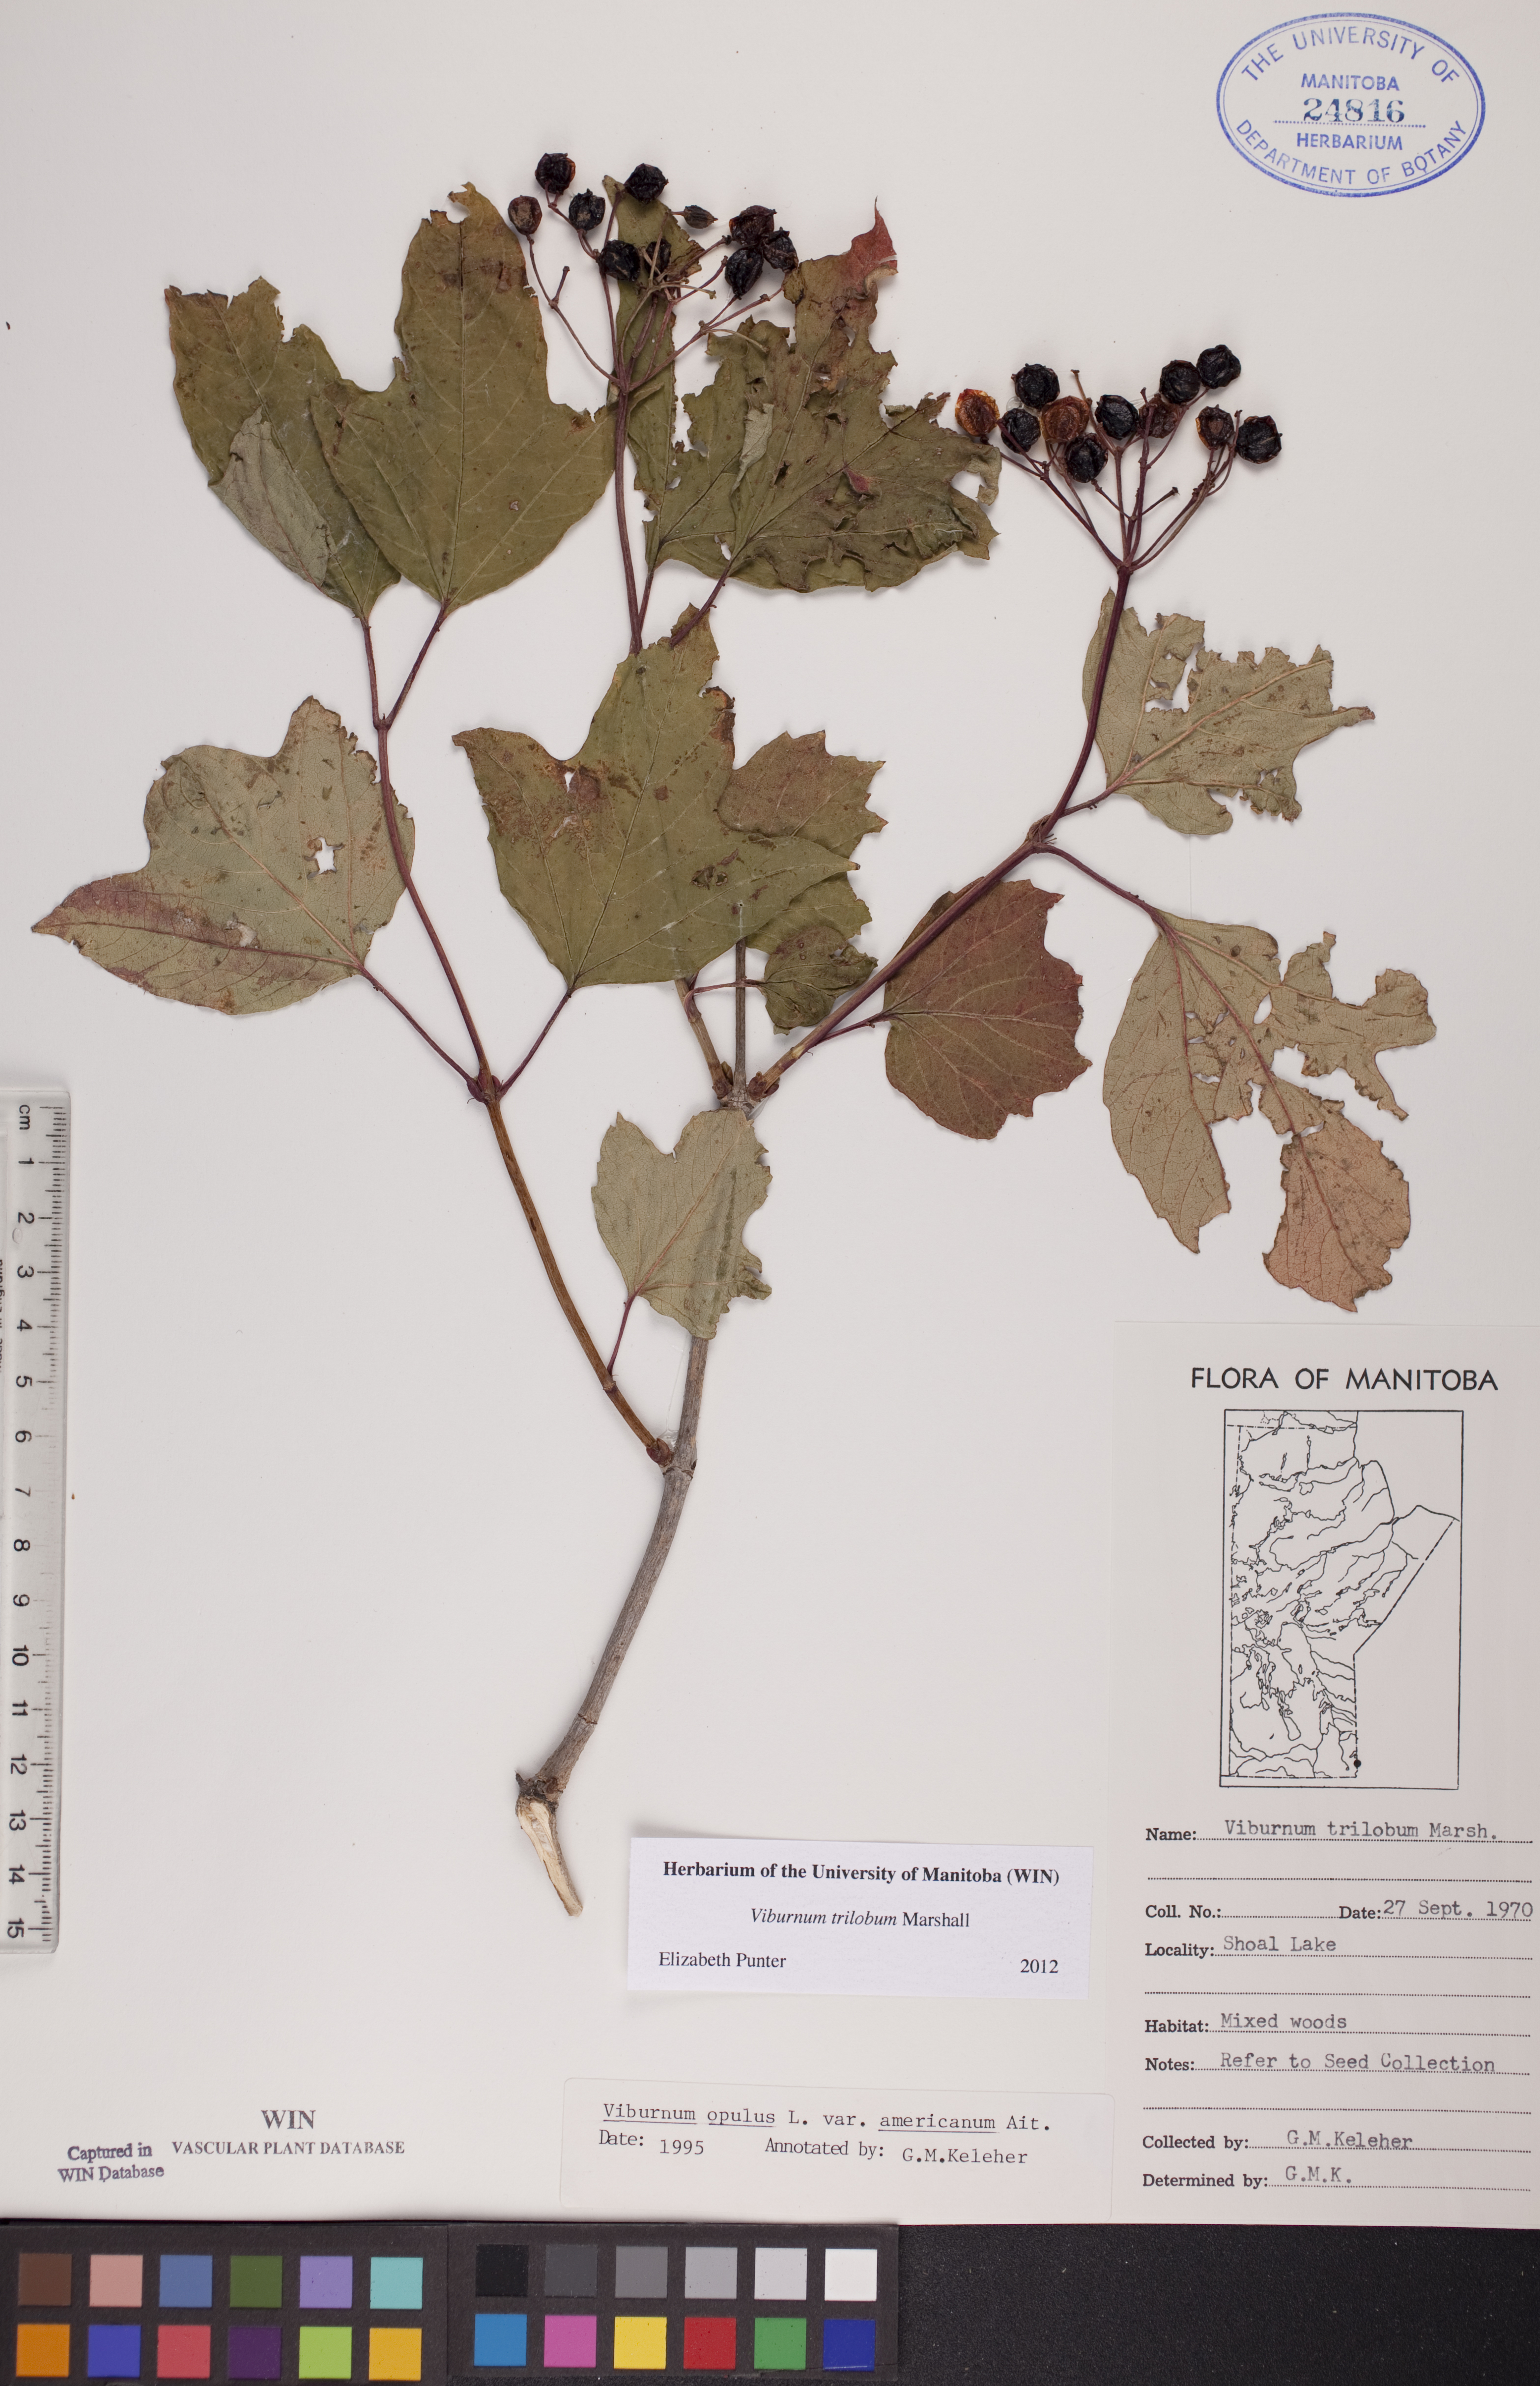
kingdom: Plantae
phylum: Tracheophyta
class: Magnoliopsida
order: Dipsacales
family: Viburnaceae
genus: Viburnum
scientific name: Viburnum trilobum
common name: American cranberrybush
